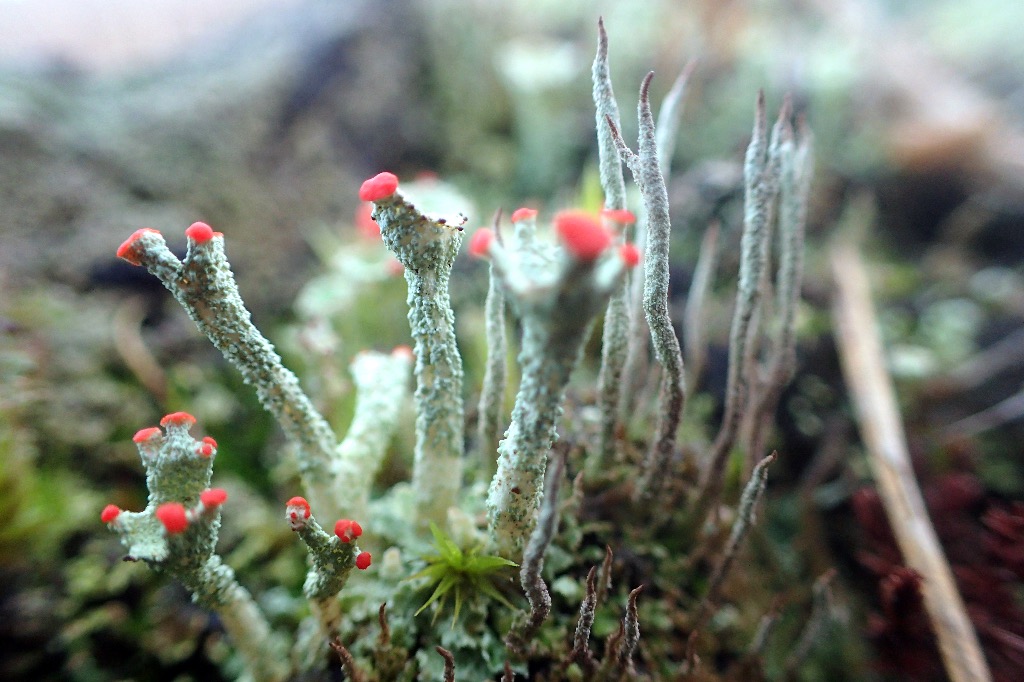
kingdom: Fungi
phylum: Ascomycota
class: Lecanoromycetes
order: Lecanorales
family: Cladoniaceae
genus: Cladonia
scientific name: Cladonia diversa
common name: rød bægerlav
